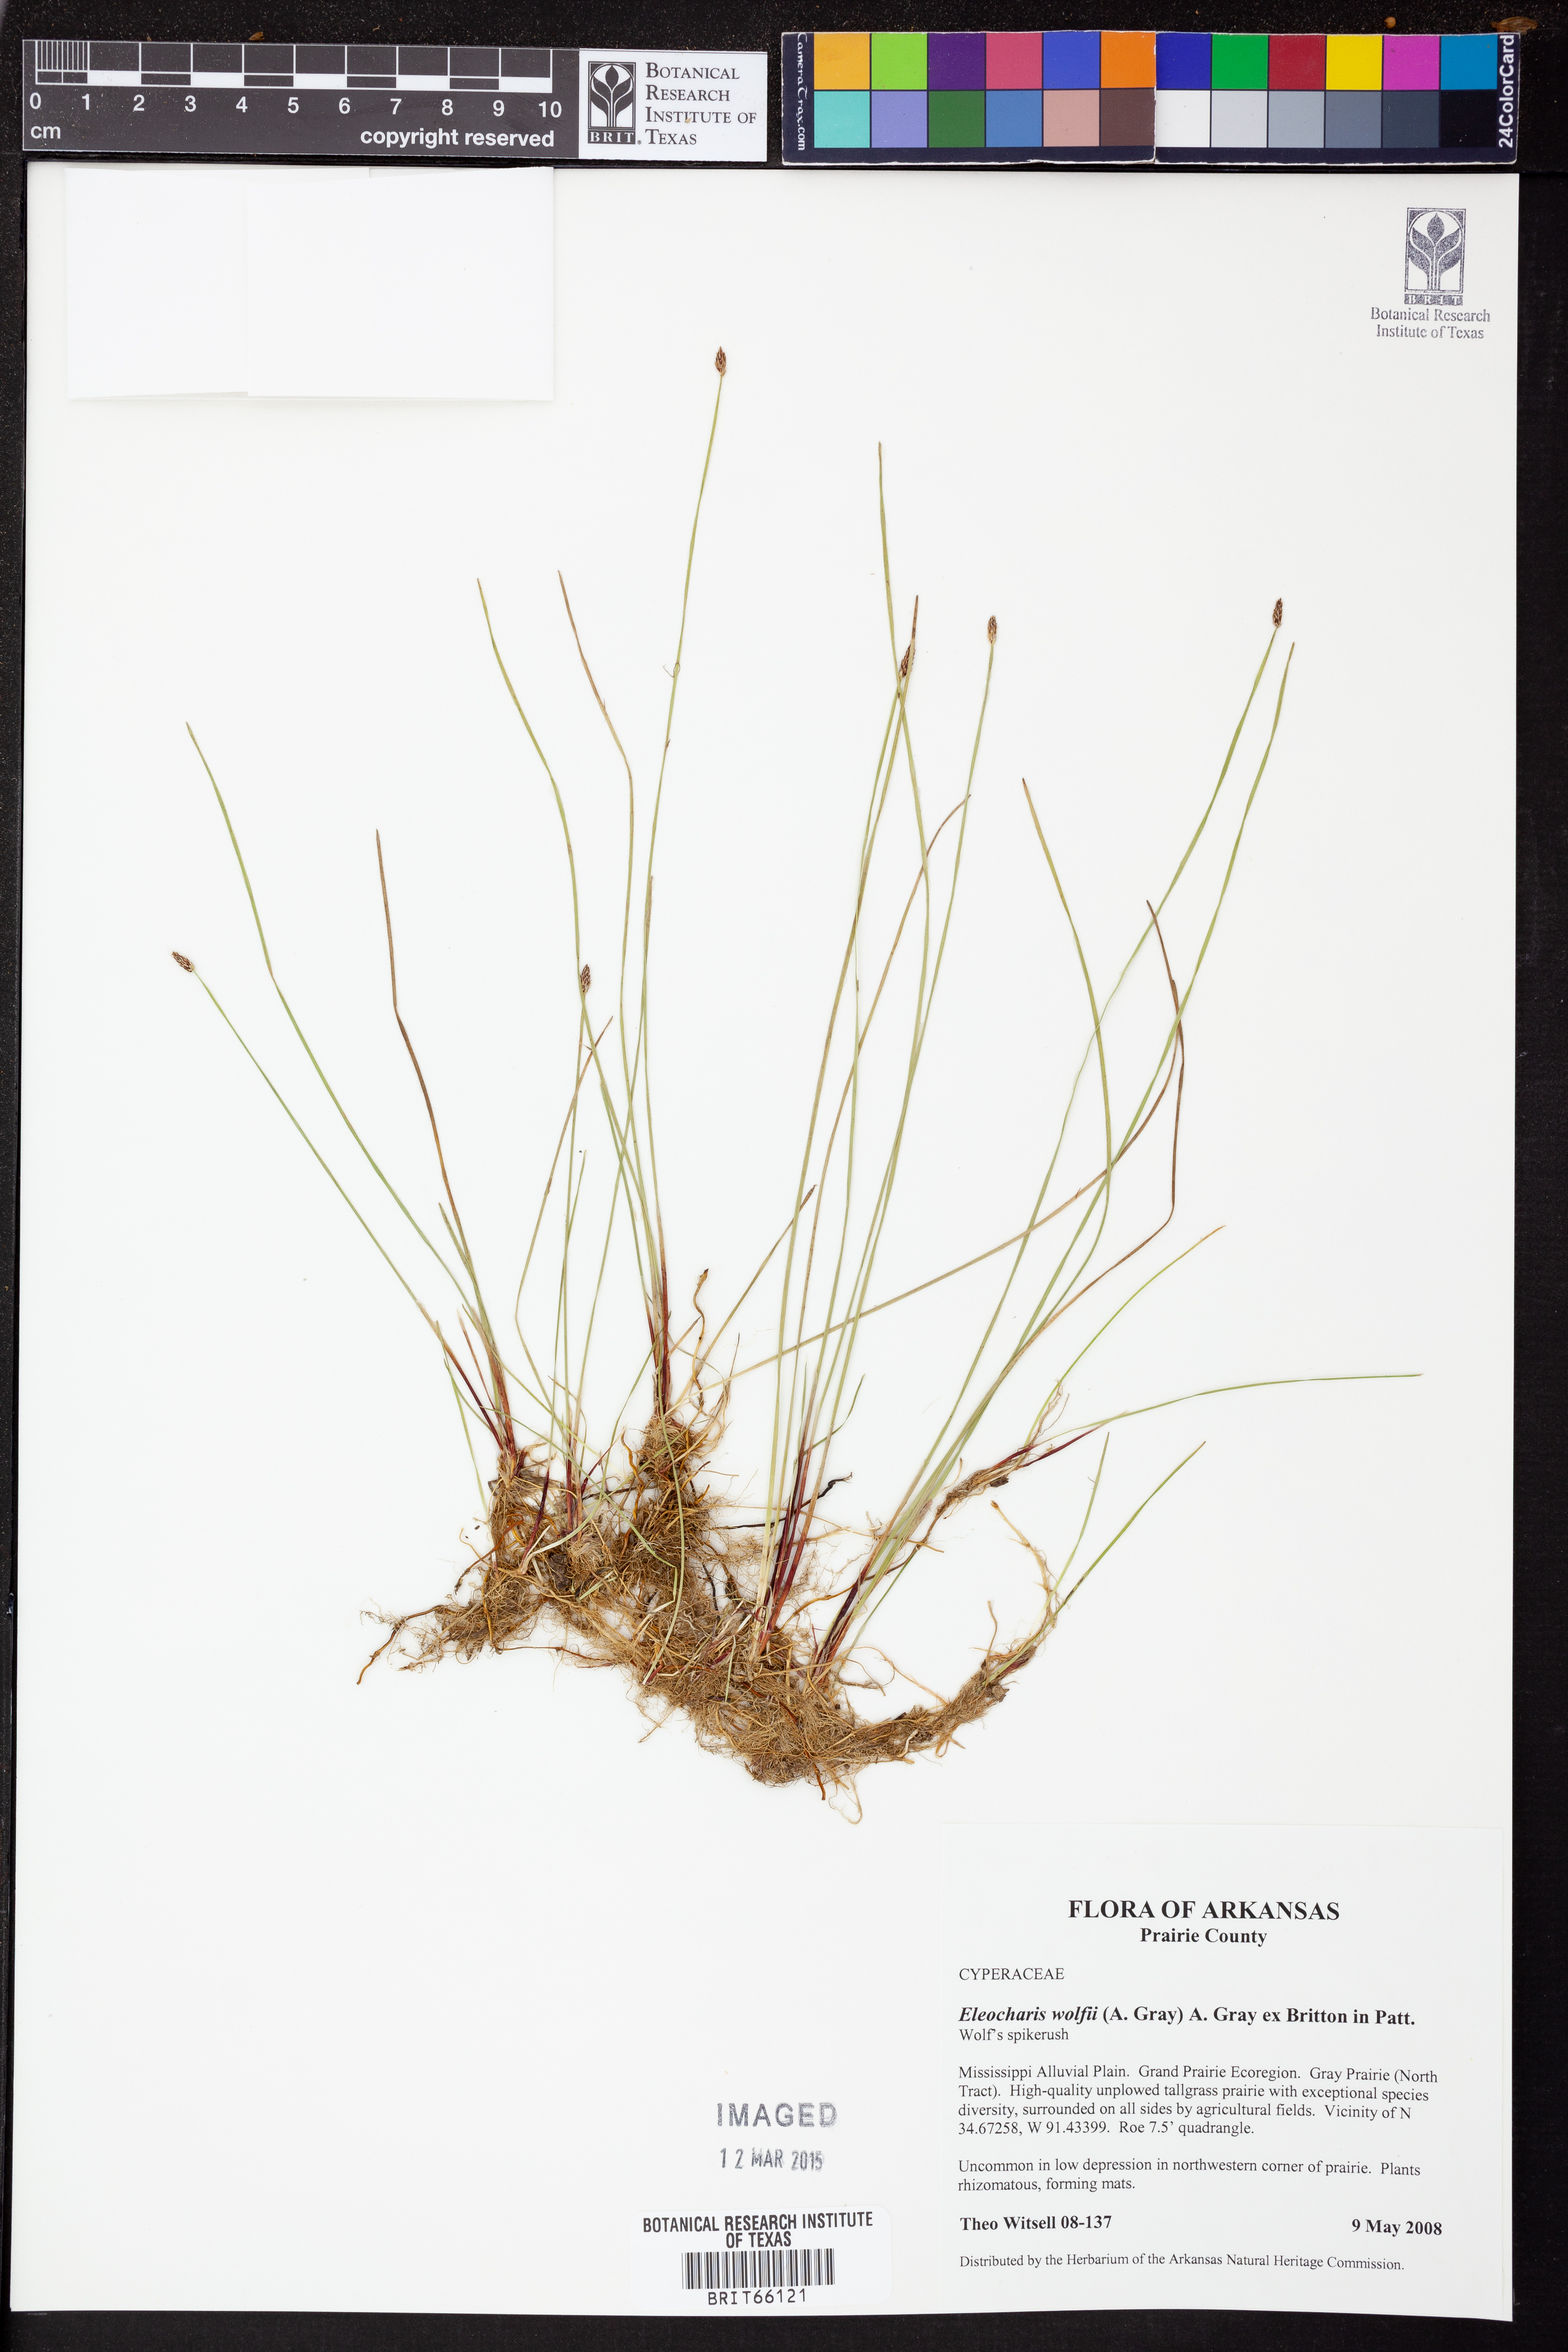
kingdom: Plantae
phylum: Tracheophyta
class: Liliopsida
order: Poales
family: Cyperaceae
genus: Eleocharis
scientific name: Eleocharis wolfii
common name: Wolf's spikerush
